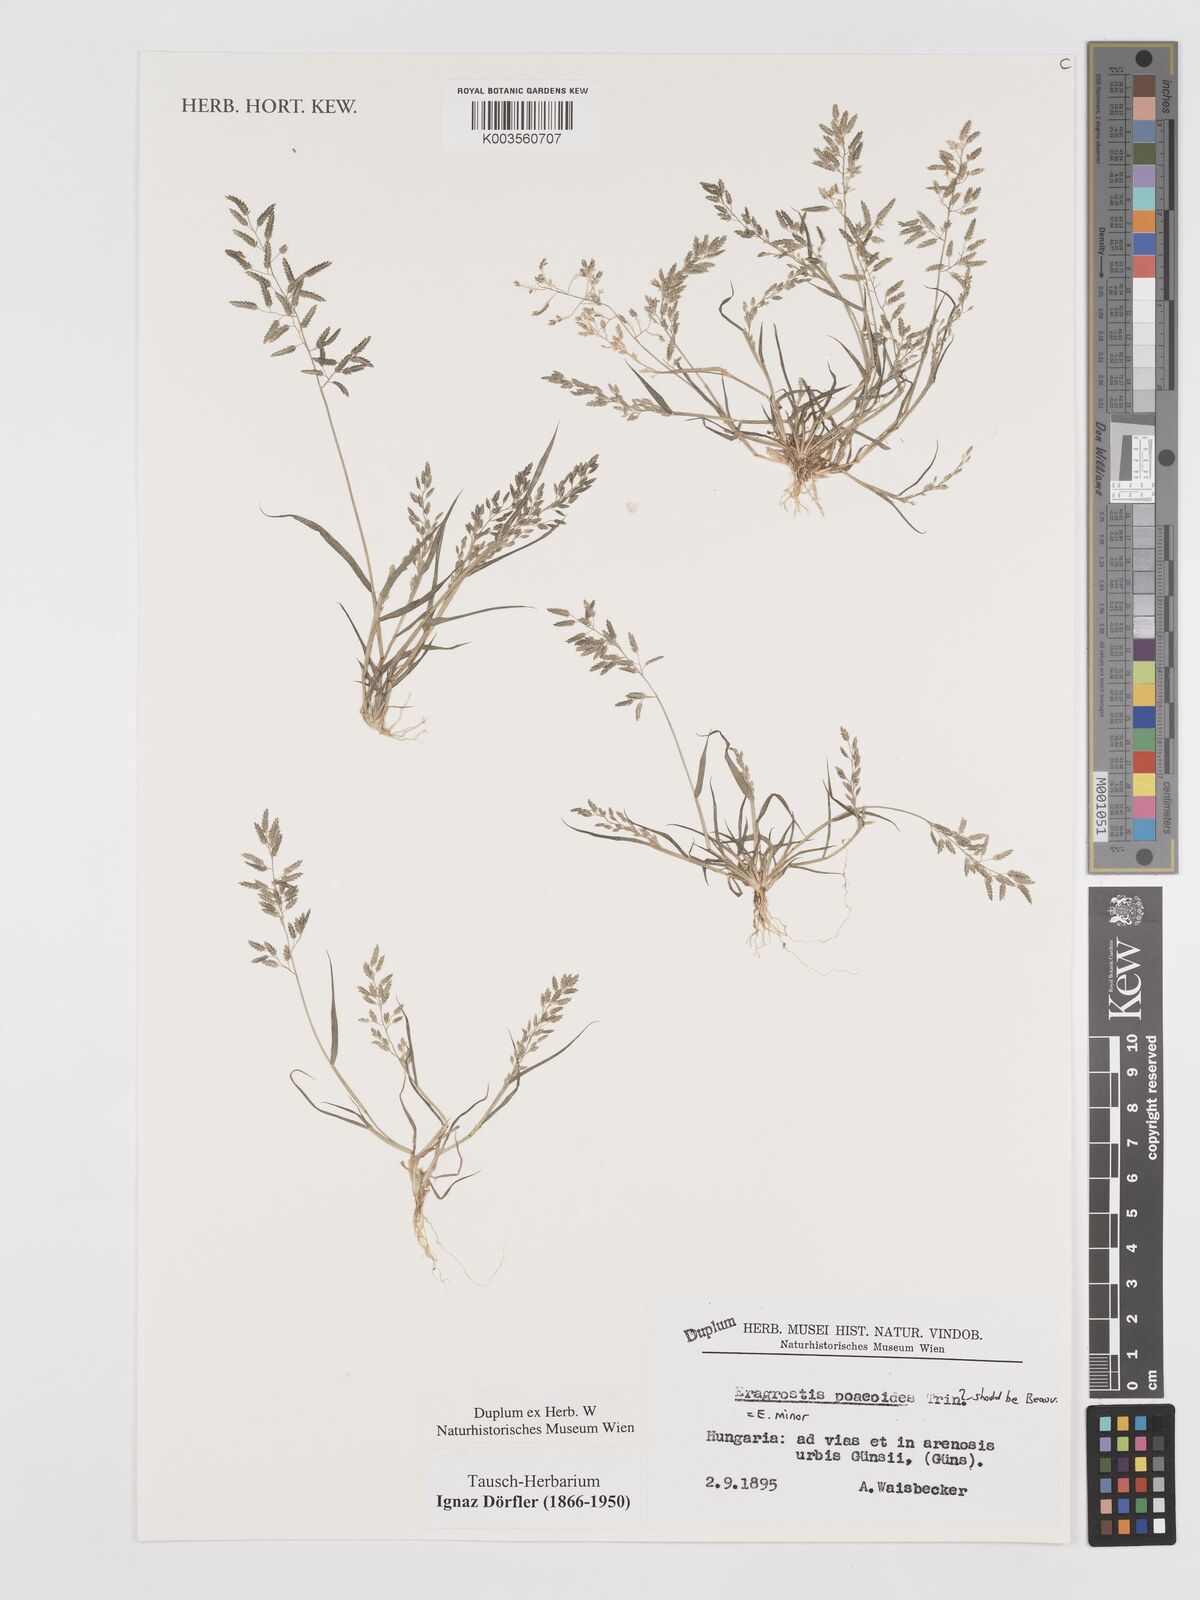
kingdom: Plantae
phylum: Tracheophyta
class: Liliopsida
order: Poales
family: Poaceae
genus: Eragrostis
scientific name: Eragrostis minor
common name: Small love-grass
